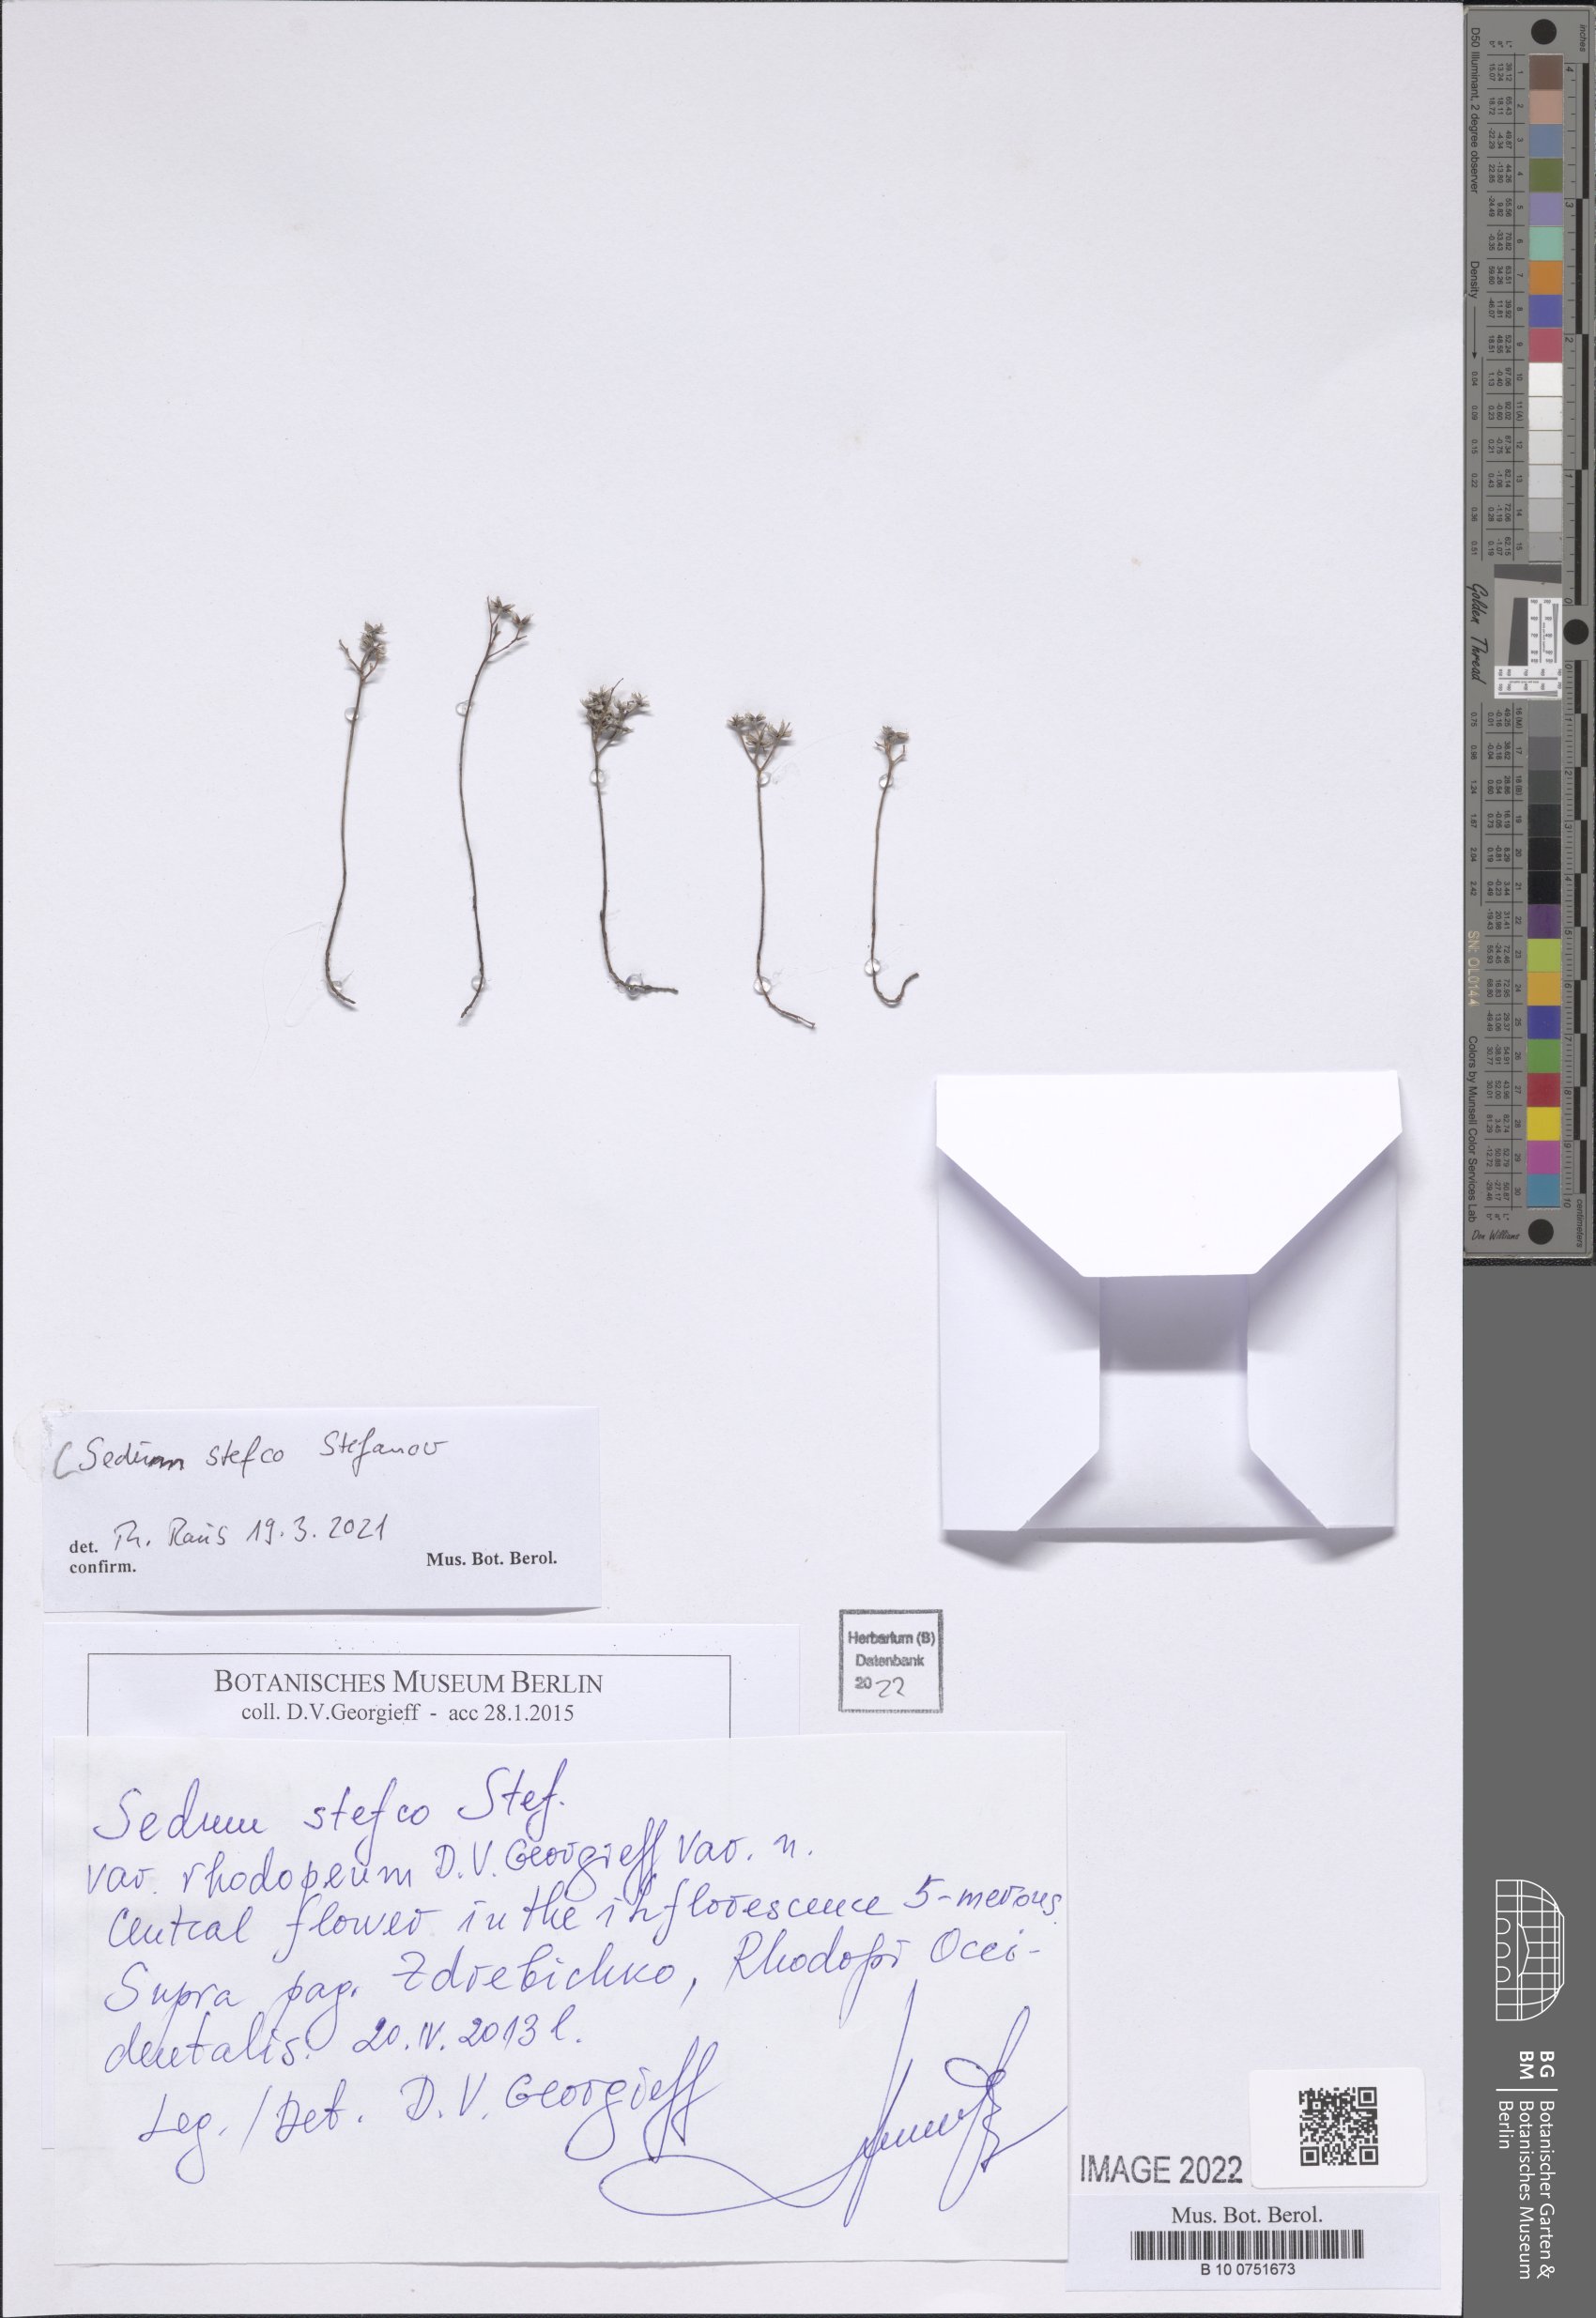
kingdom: Plantae
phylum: Tracheophyta
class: Magnoliopsida
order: Saxifragales
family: Crassulaceae
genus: Sedum
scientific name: Sedum stefco
